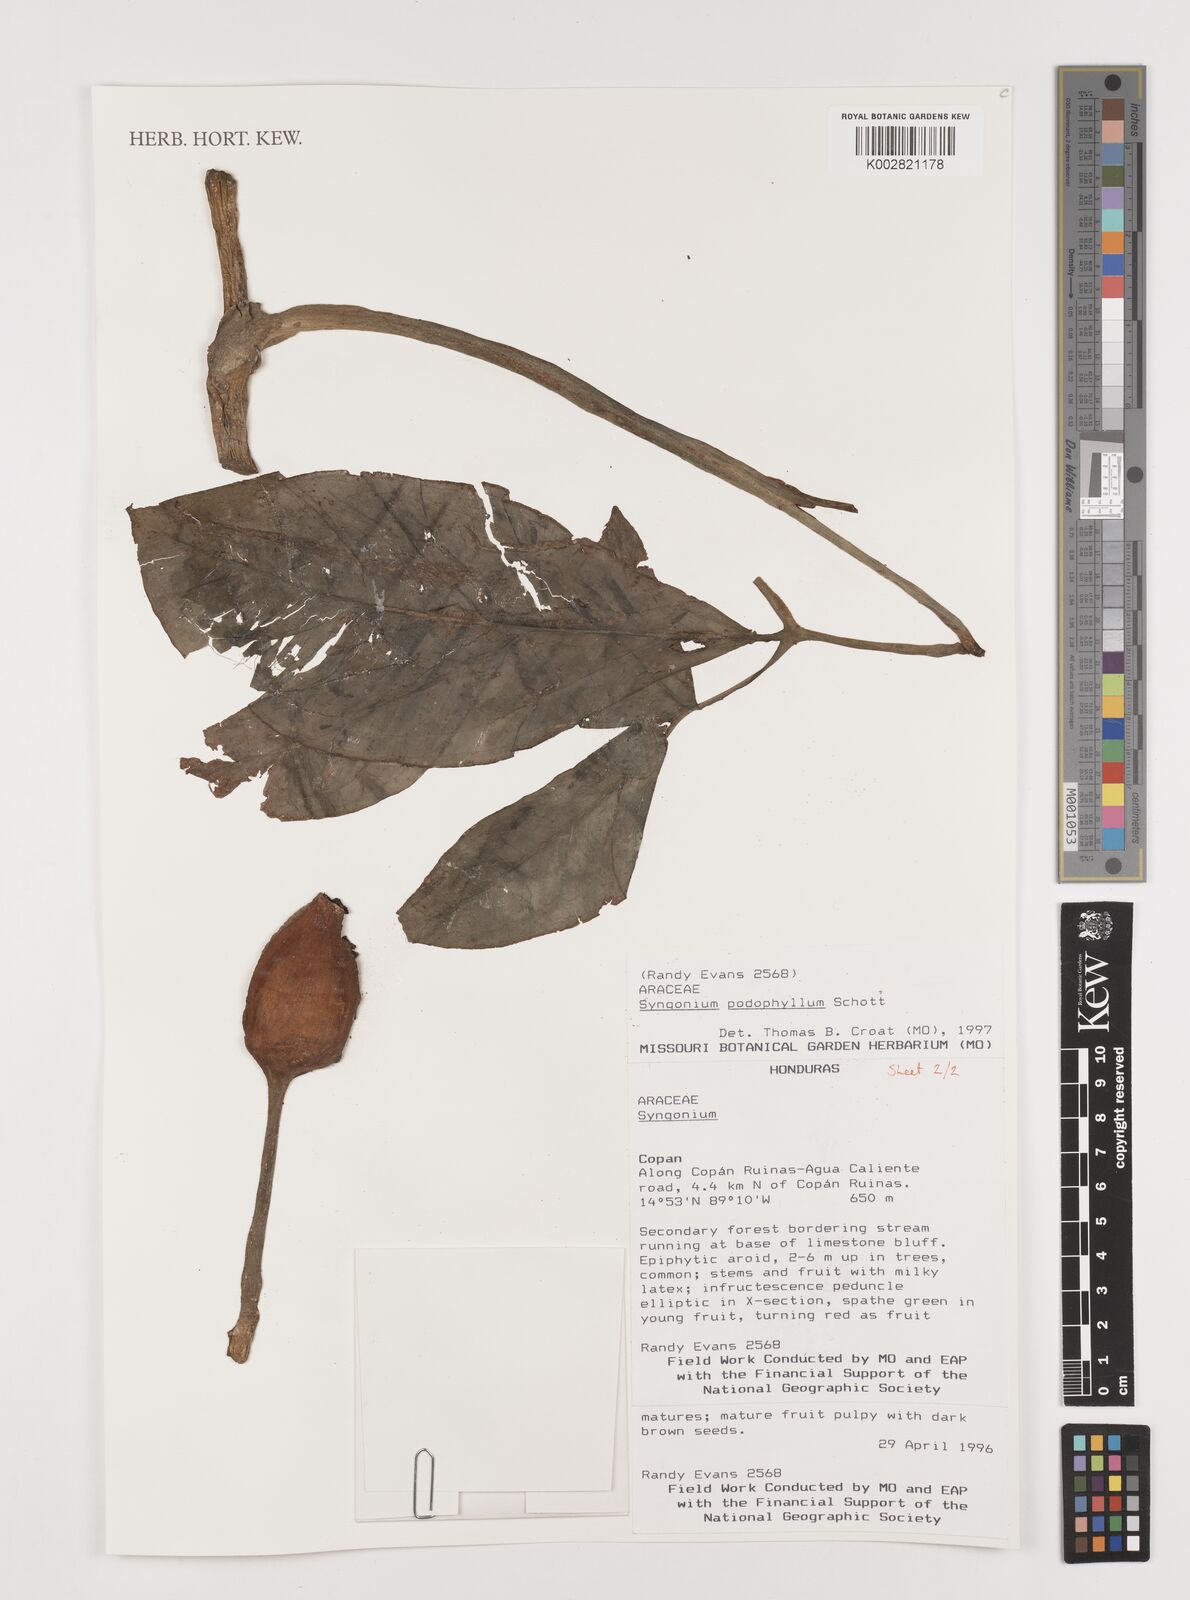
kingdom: Plantae
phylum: Tracheophyta
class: Liliopsida
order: Alismatales
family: Araceae
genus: Syngonium
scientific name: Syngonium podophyllum
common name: American evergreen
